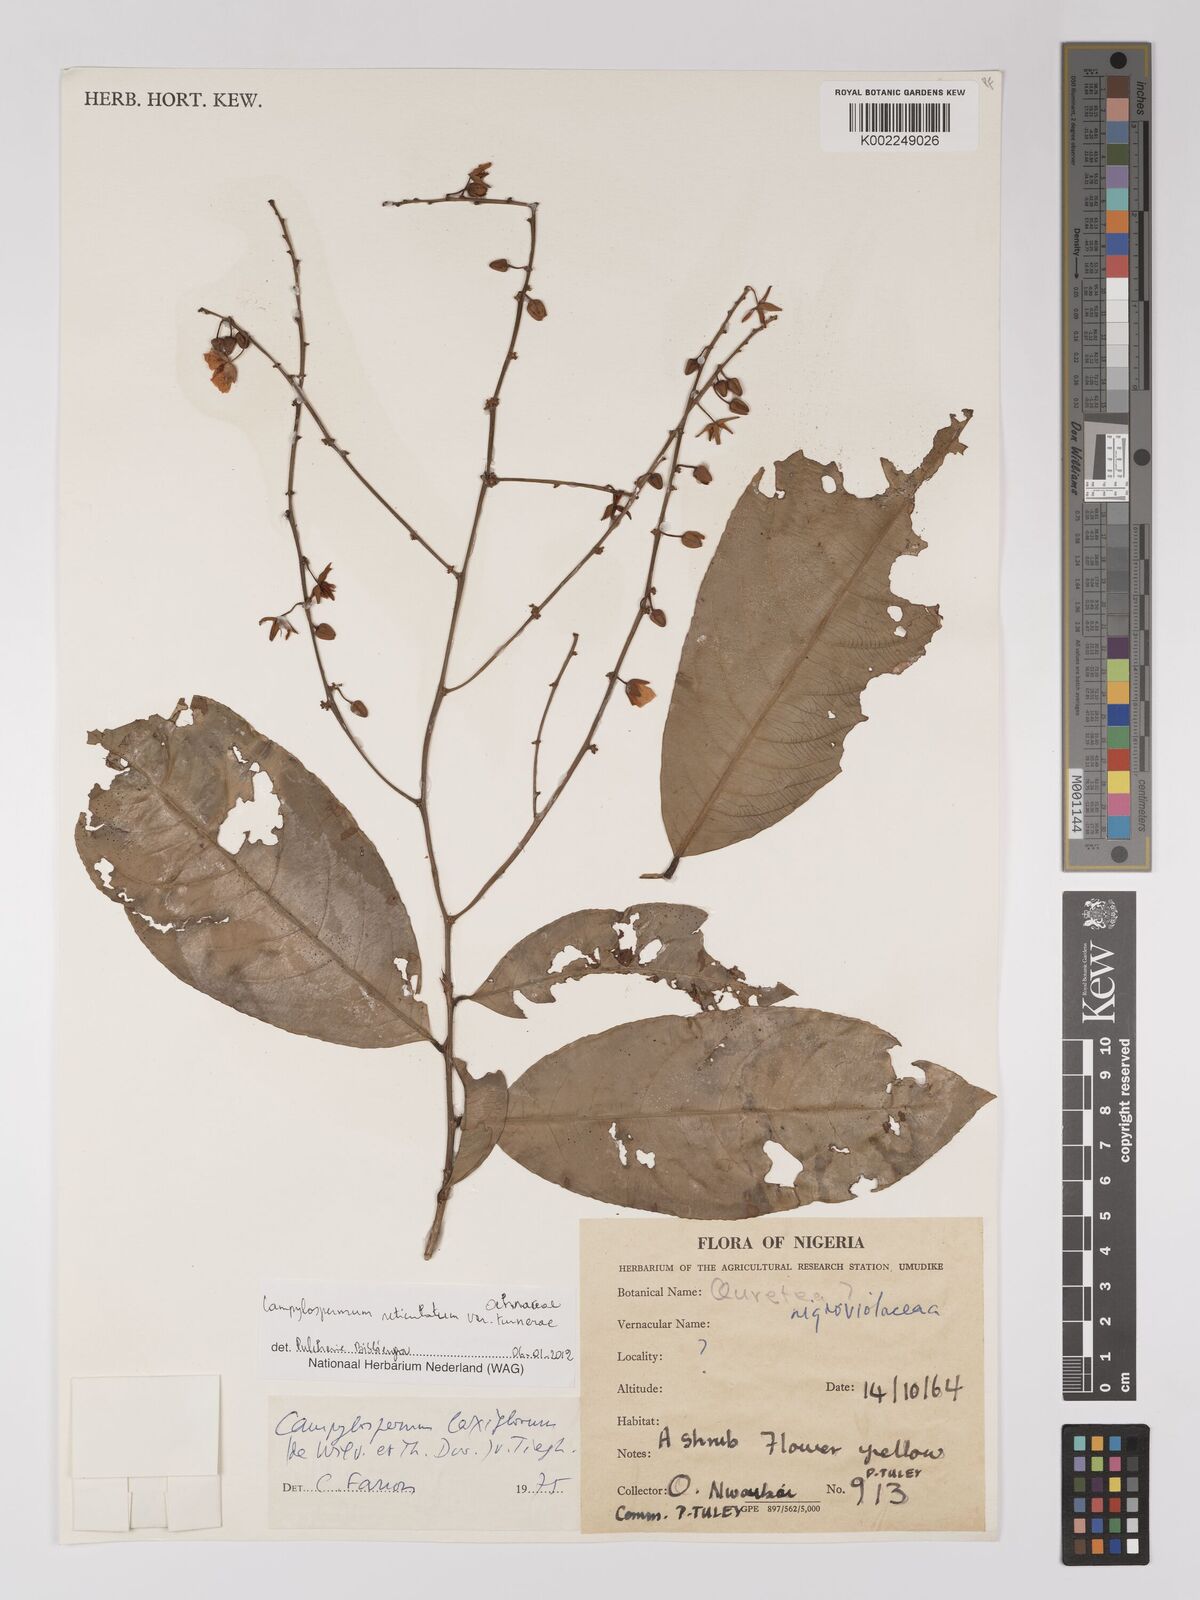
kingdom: Plantae
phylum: Tracheophyta
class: Magnoliopsida
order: Malpighiales
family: Ochnaceae
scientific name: Ochnaceae
